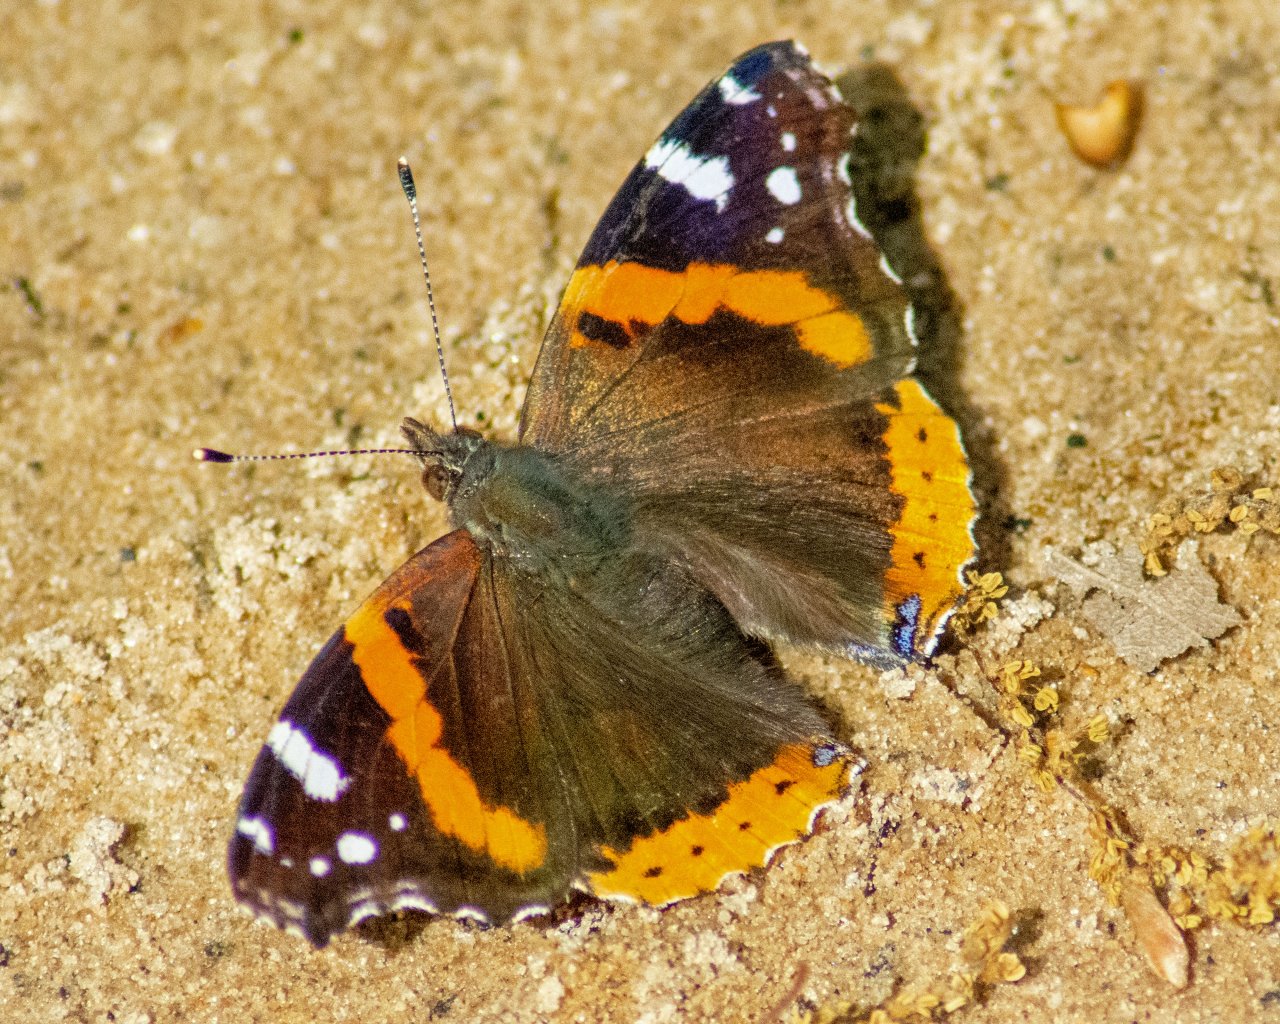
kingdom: Animalia
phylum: Arthropoda
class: Insecta
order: Lepidoptera
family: Nymphalidae
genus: Vanessa
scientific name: Vanessa atalanta
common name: Red Admiral
